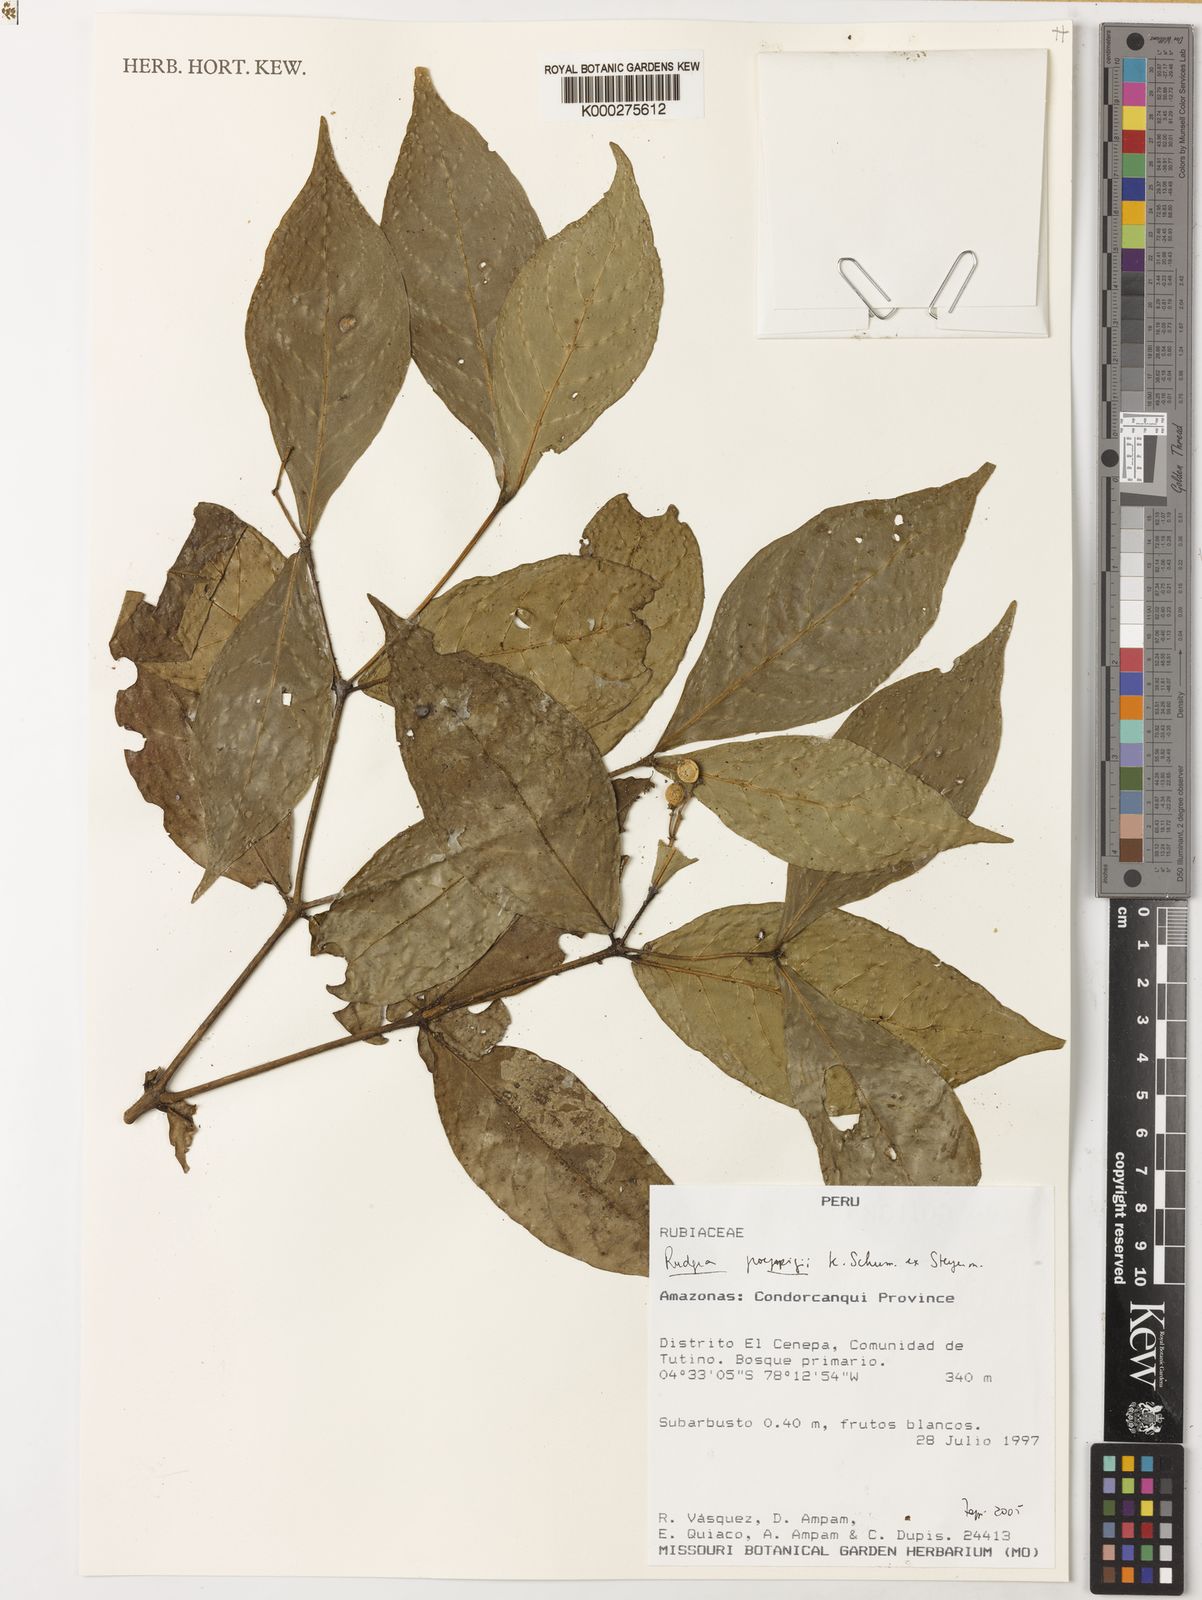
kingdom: Plantae
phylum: Tracheophyta
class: Magnoliopsida
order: Gentianales
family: Rubiaceae
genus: Rudgea
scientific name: Rudgea poeppigii
